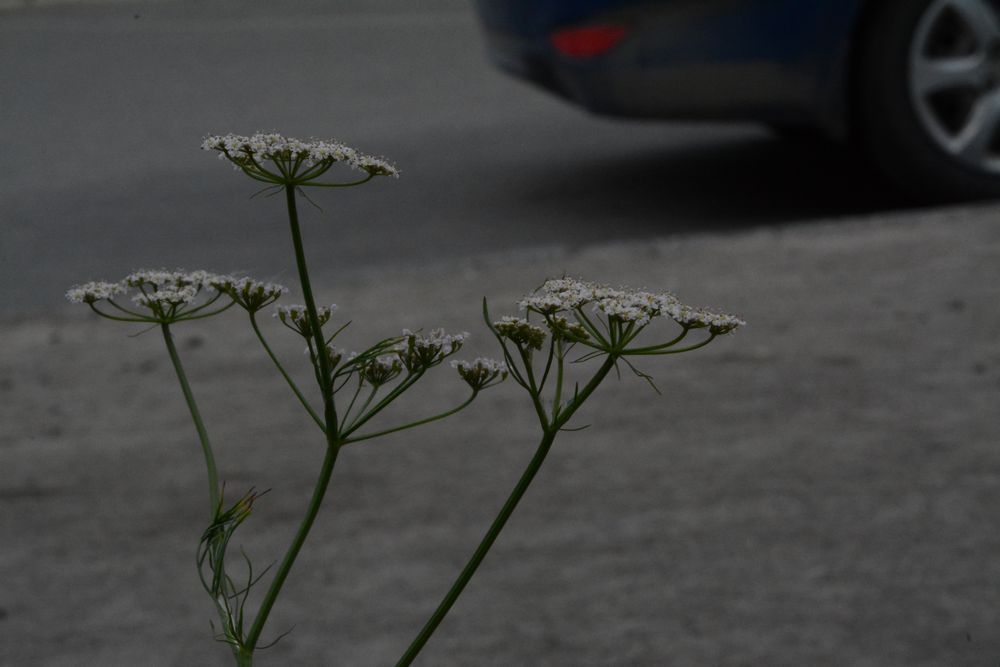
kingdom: Plantae
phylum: Tracheophyta
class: Magnoliopsida
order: Apiales
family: Apiaceae
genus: Carum
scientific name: Carum carvi
